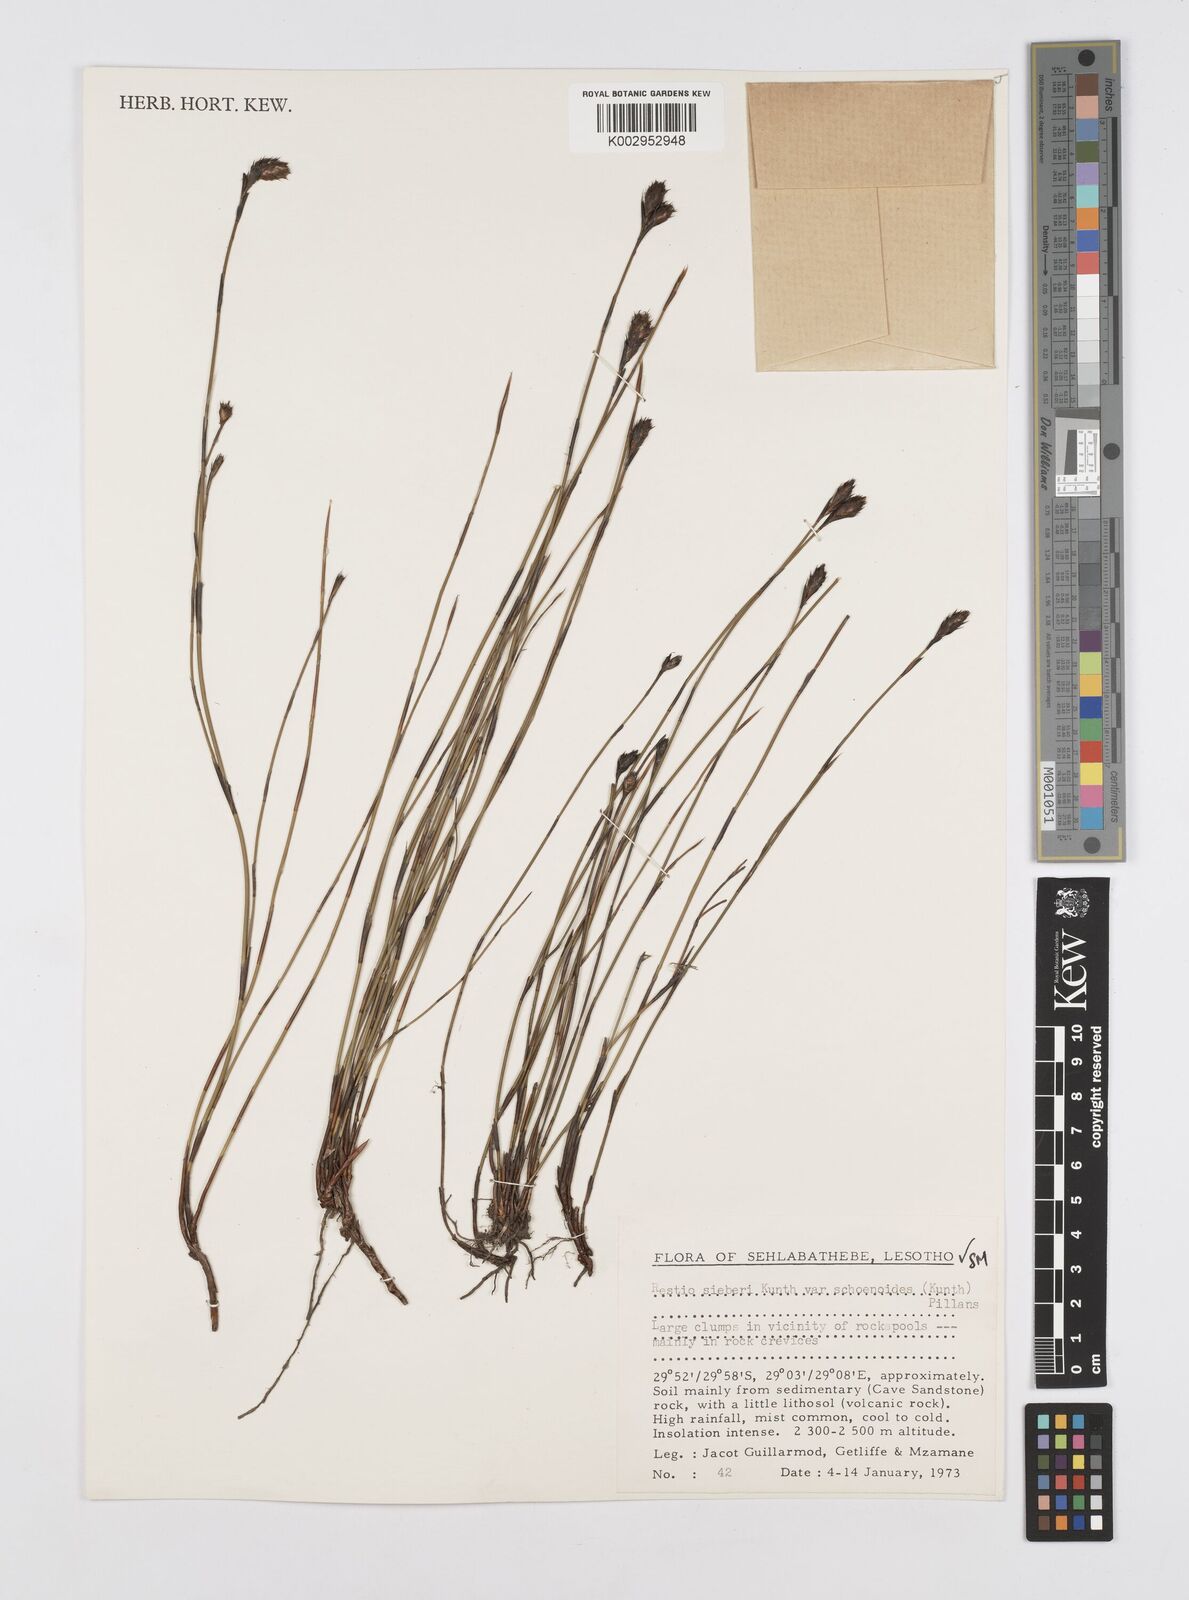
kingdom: Plantae
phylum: Tracheophyta
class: Liliopsida
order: Poales
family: Restionaceae
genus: Restio
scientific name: Restio schoenoides
